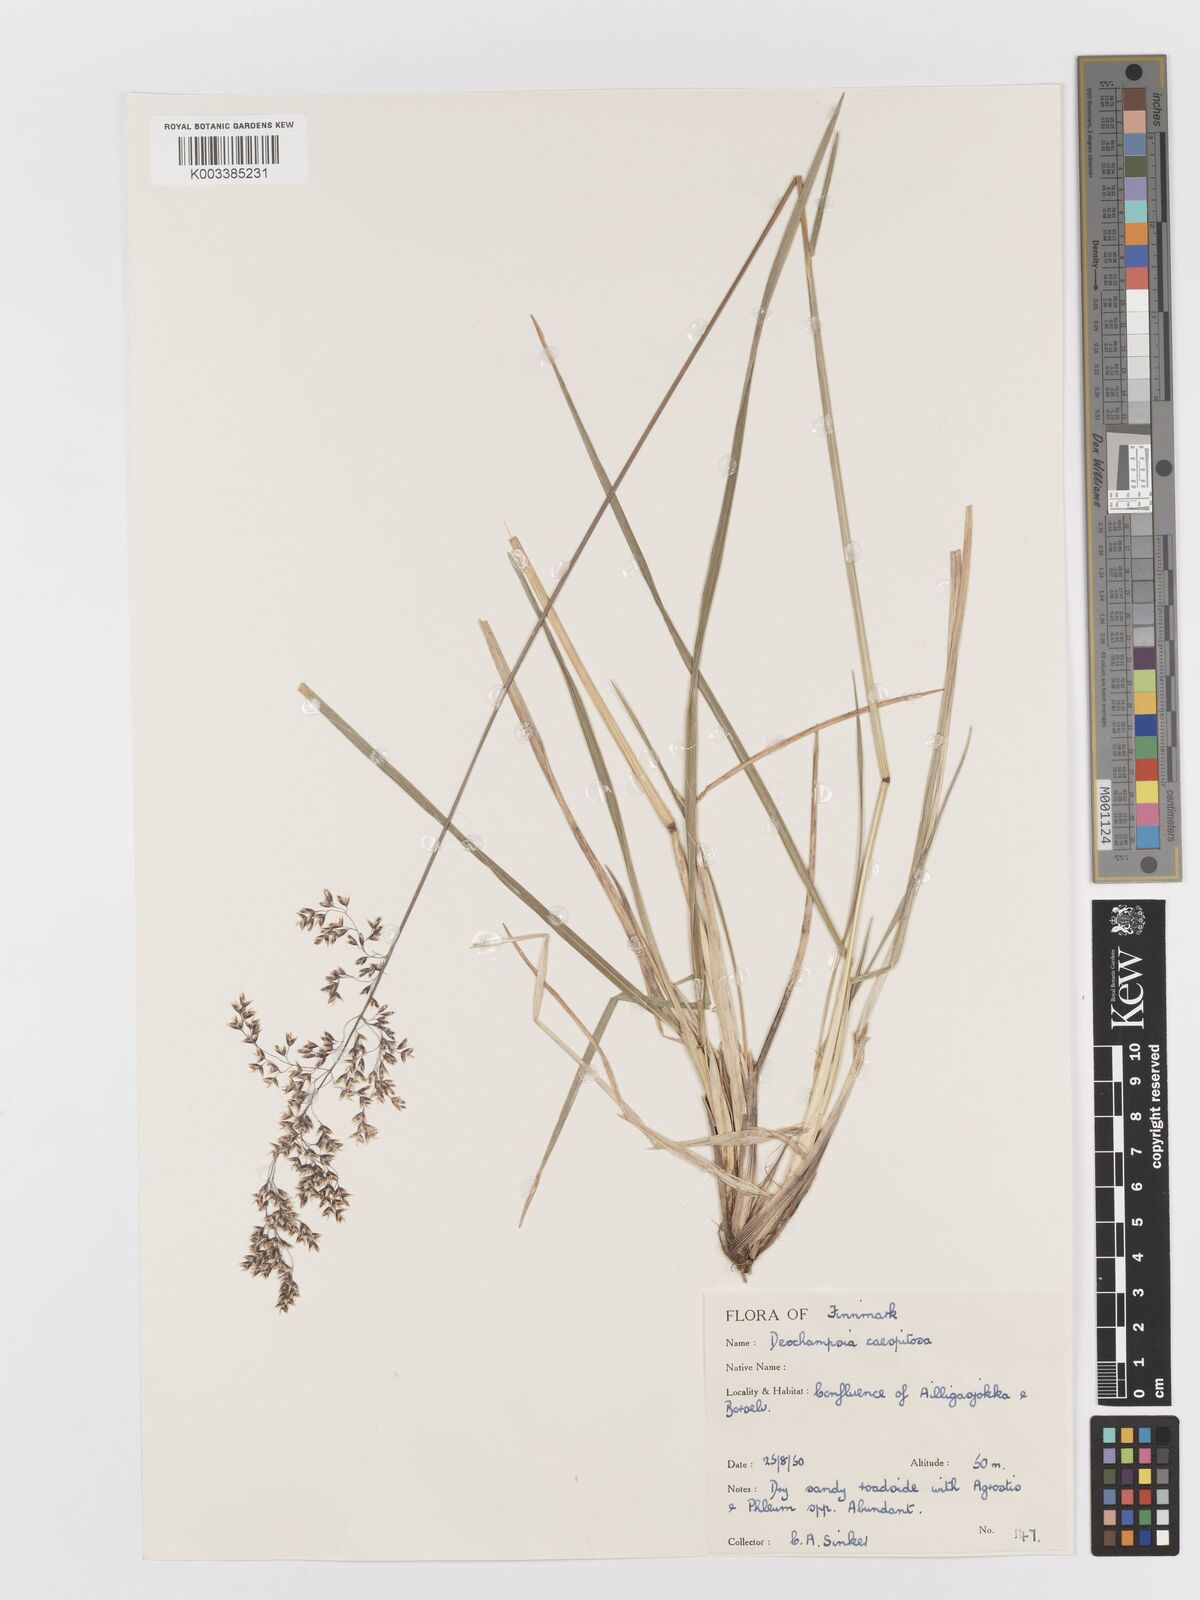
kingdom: Plantae
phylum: Tracheophyta
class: Liliopsida
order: Poales
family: Poaceae
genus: Deschampsia
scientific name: Deschampsia cespitosa
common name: Tufted hair-grass
